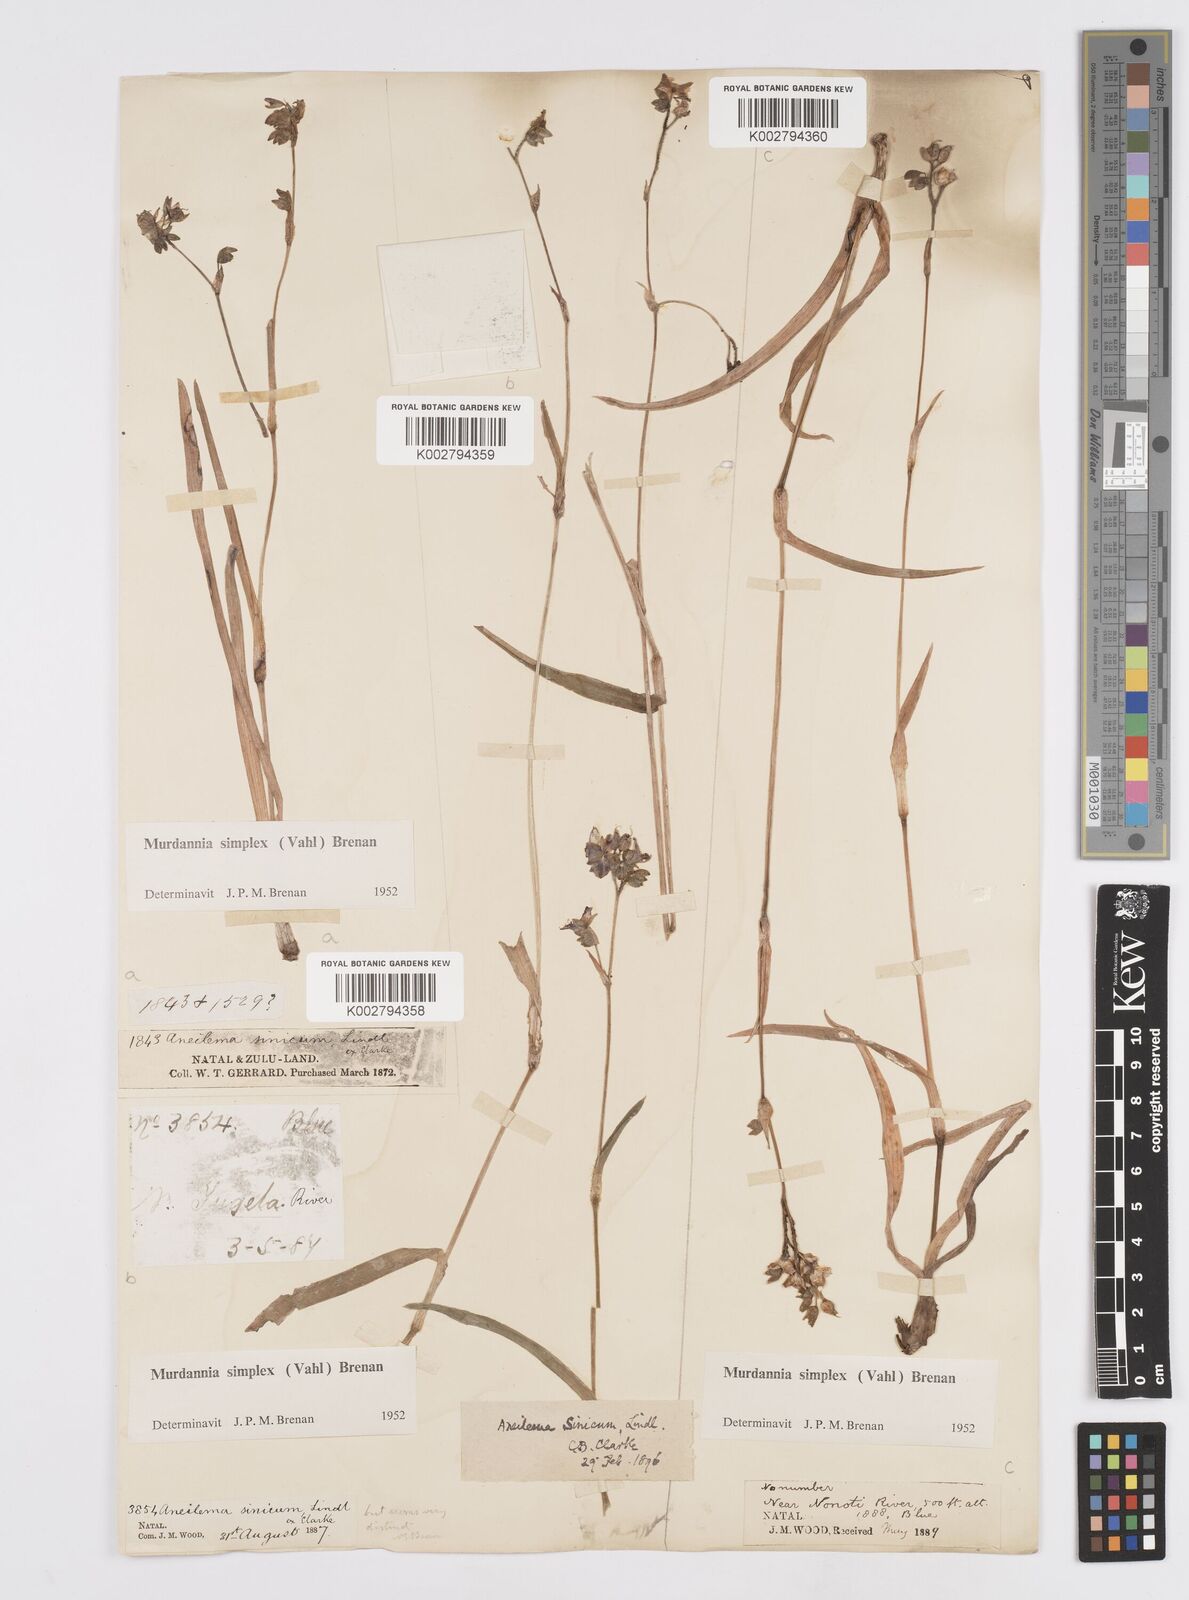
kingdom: Plantae
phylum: Tracheophyta
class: Liliopsida
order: Commelinales
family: Commelinaceae
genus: Murdannia
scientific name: Murdannia simplex
